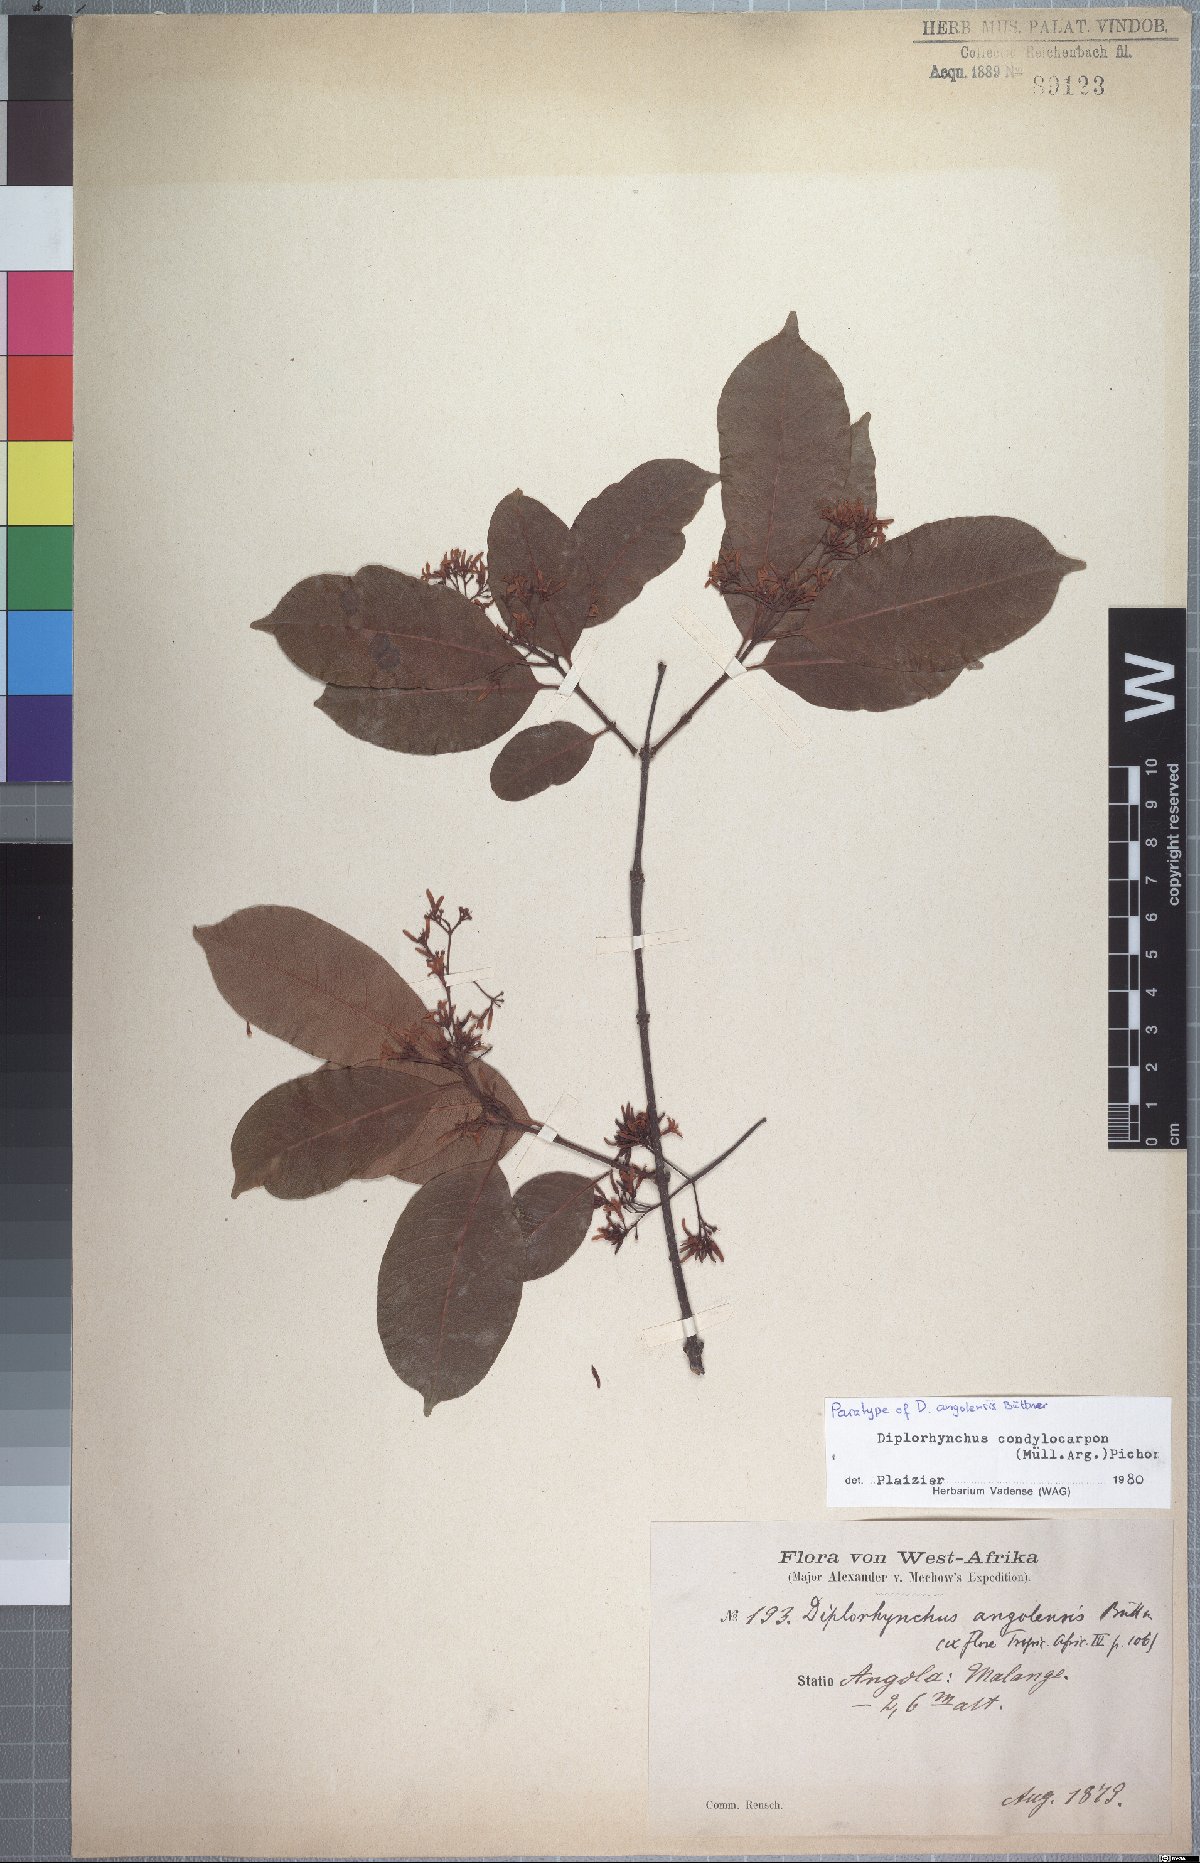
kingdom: Plantae
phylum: Tracheophyta
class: Magnoliopsida
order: Gentianales
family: Apocynaceae
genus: Diplorhynchus
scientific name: Diplorhynchus condylocarpon
